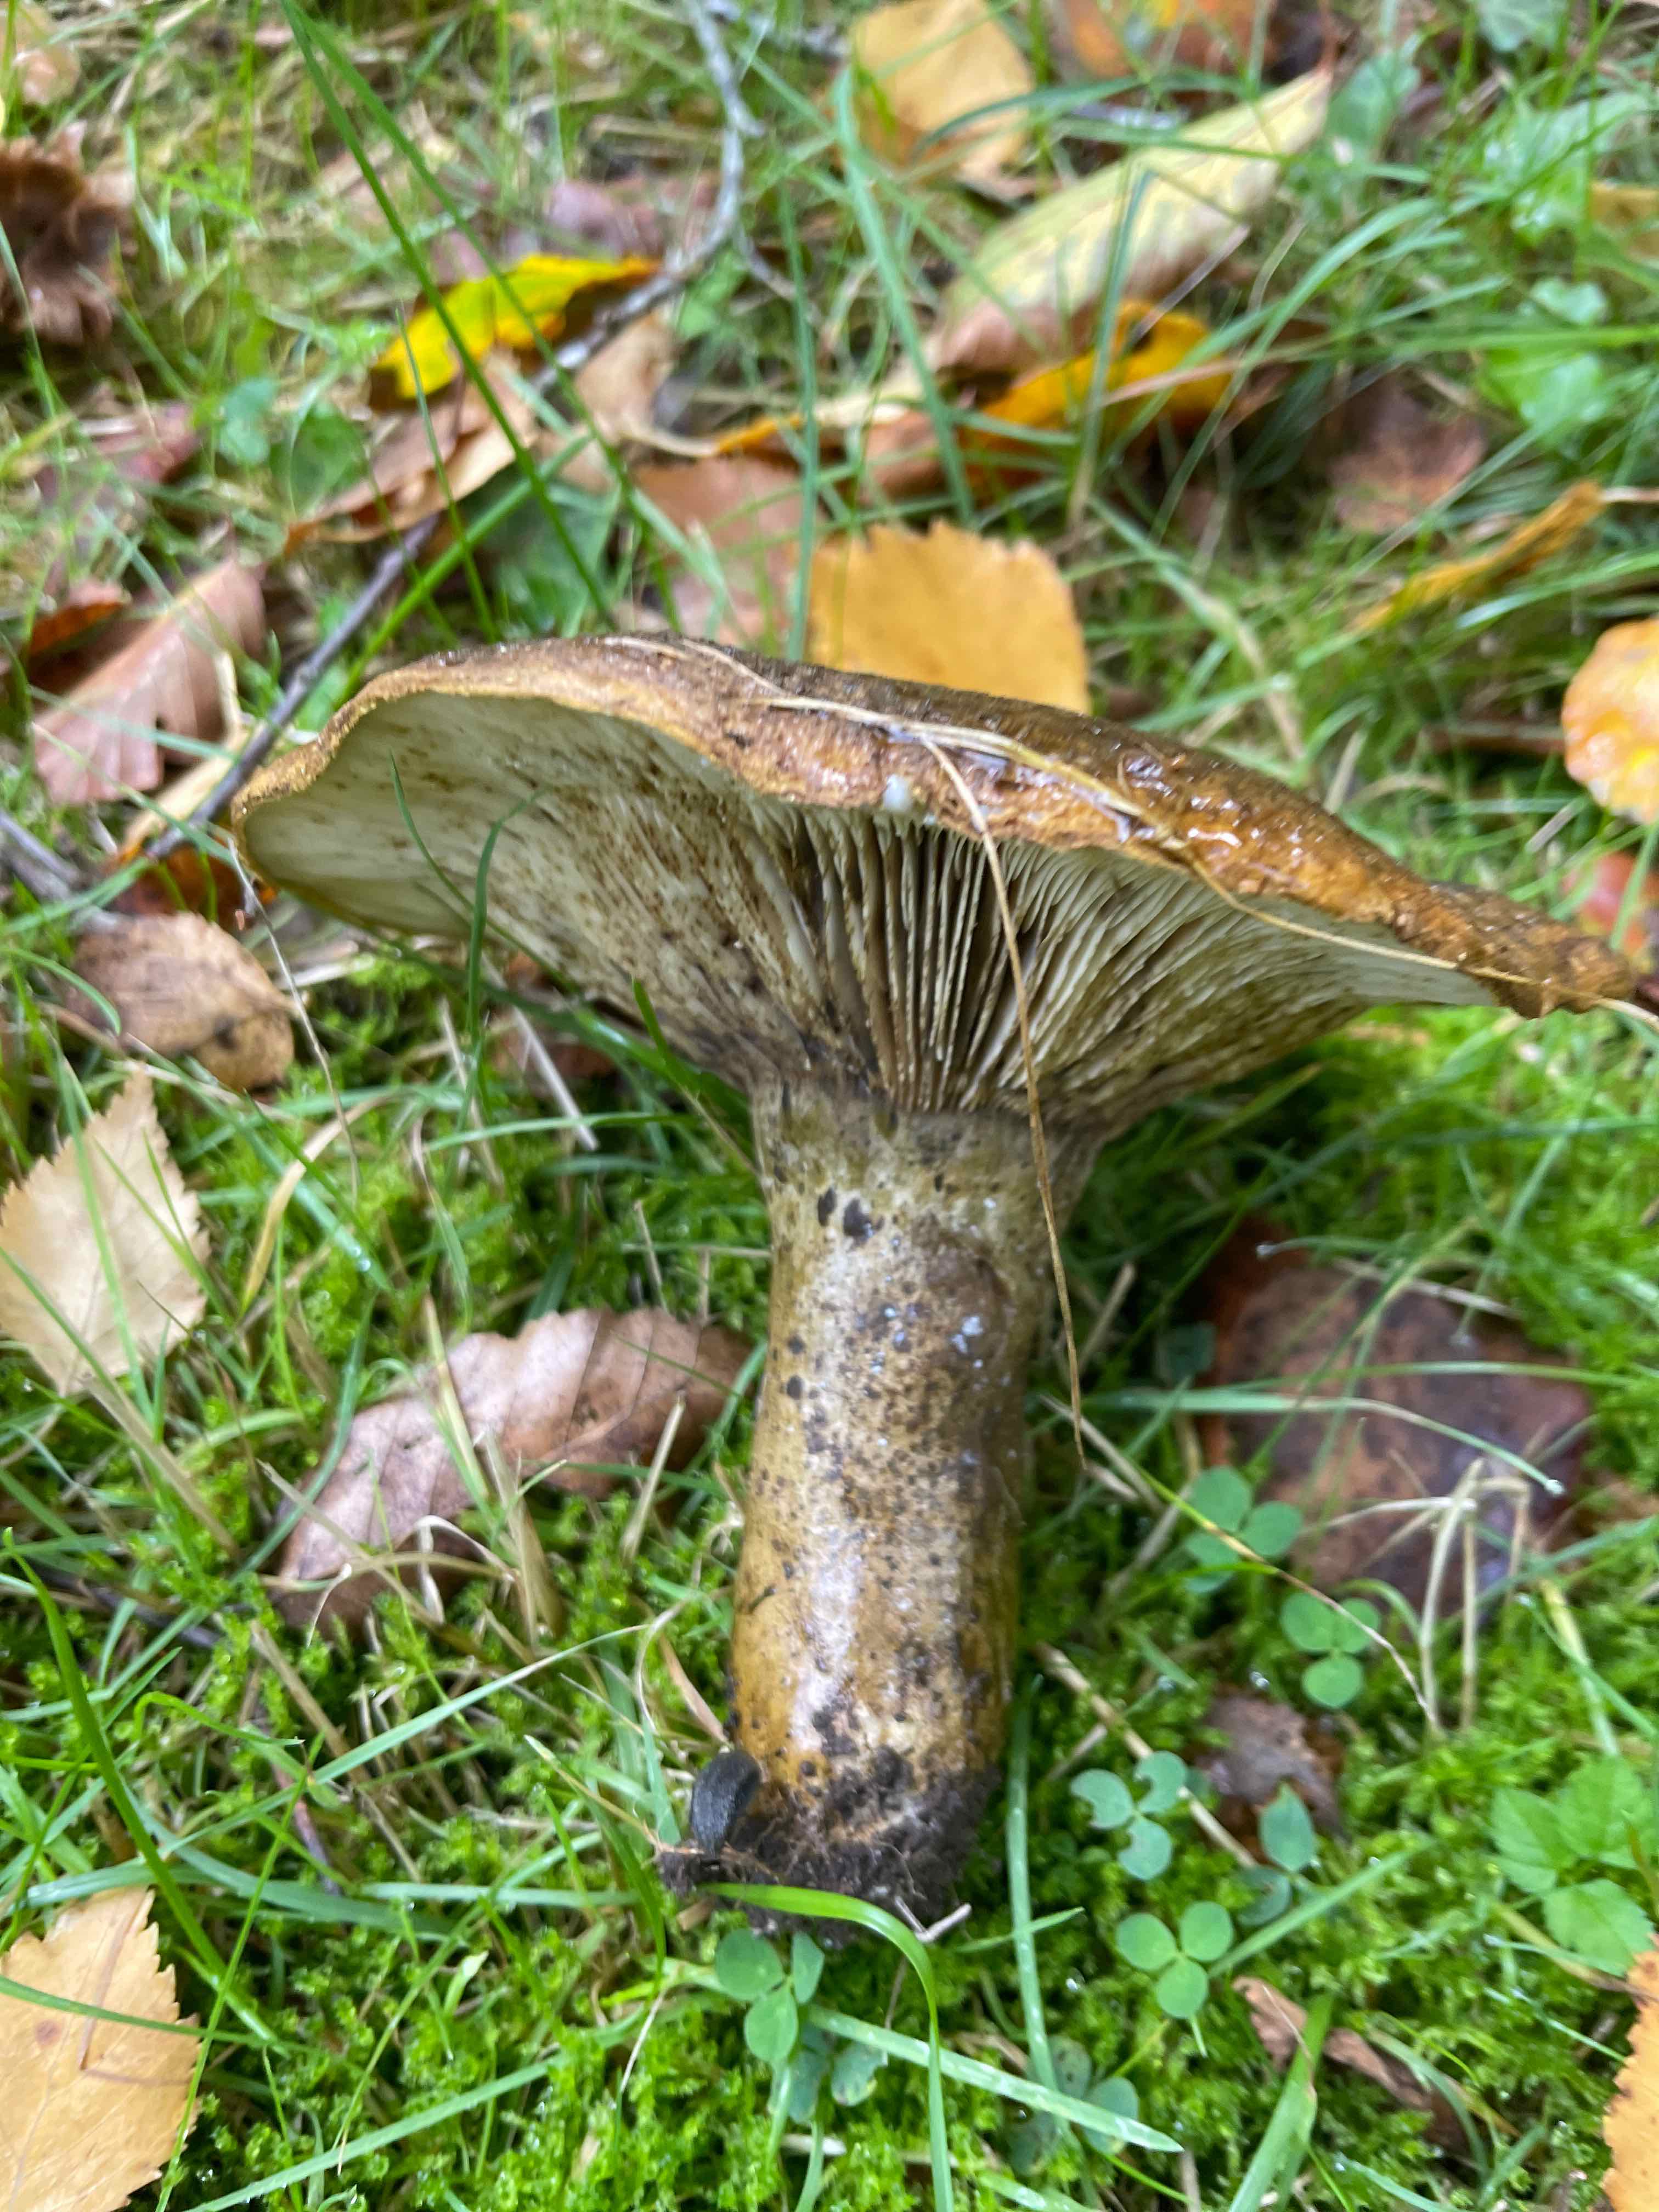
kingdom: Fungi
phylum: Basidiomycota
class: Agaricomycetes
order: Russulales
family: Russulaceae
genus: Lactarius
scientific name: Lactarius necator
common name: manddraber-mælkehat
